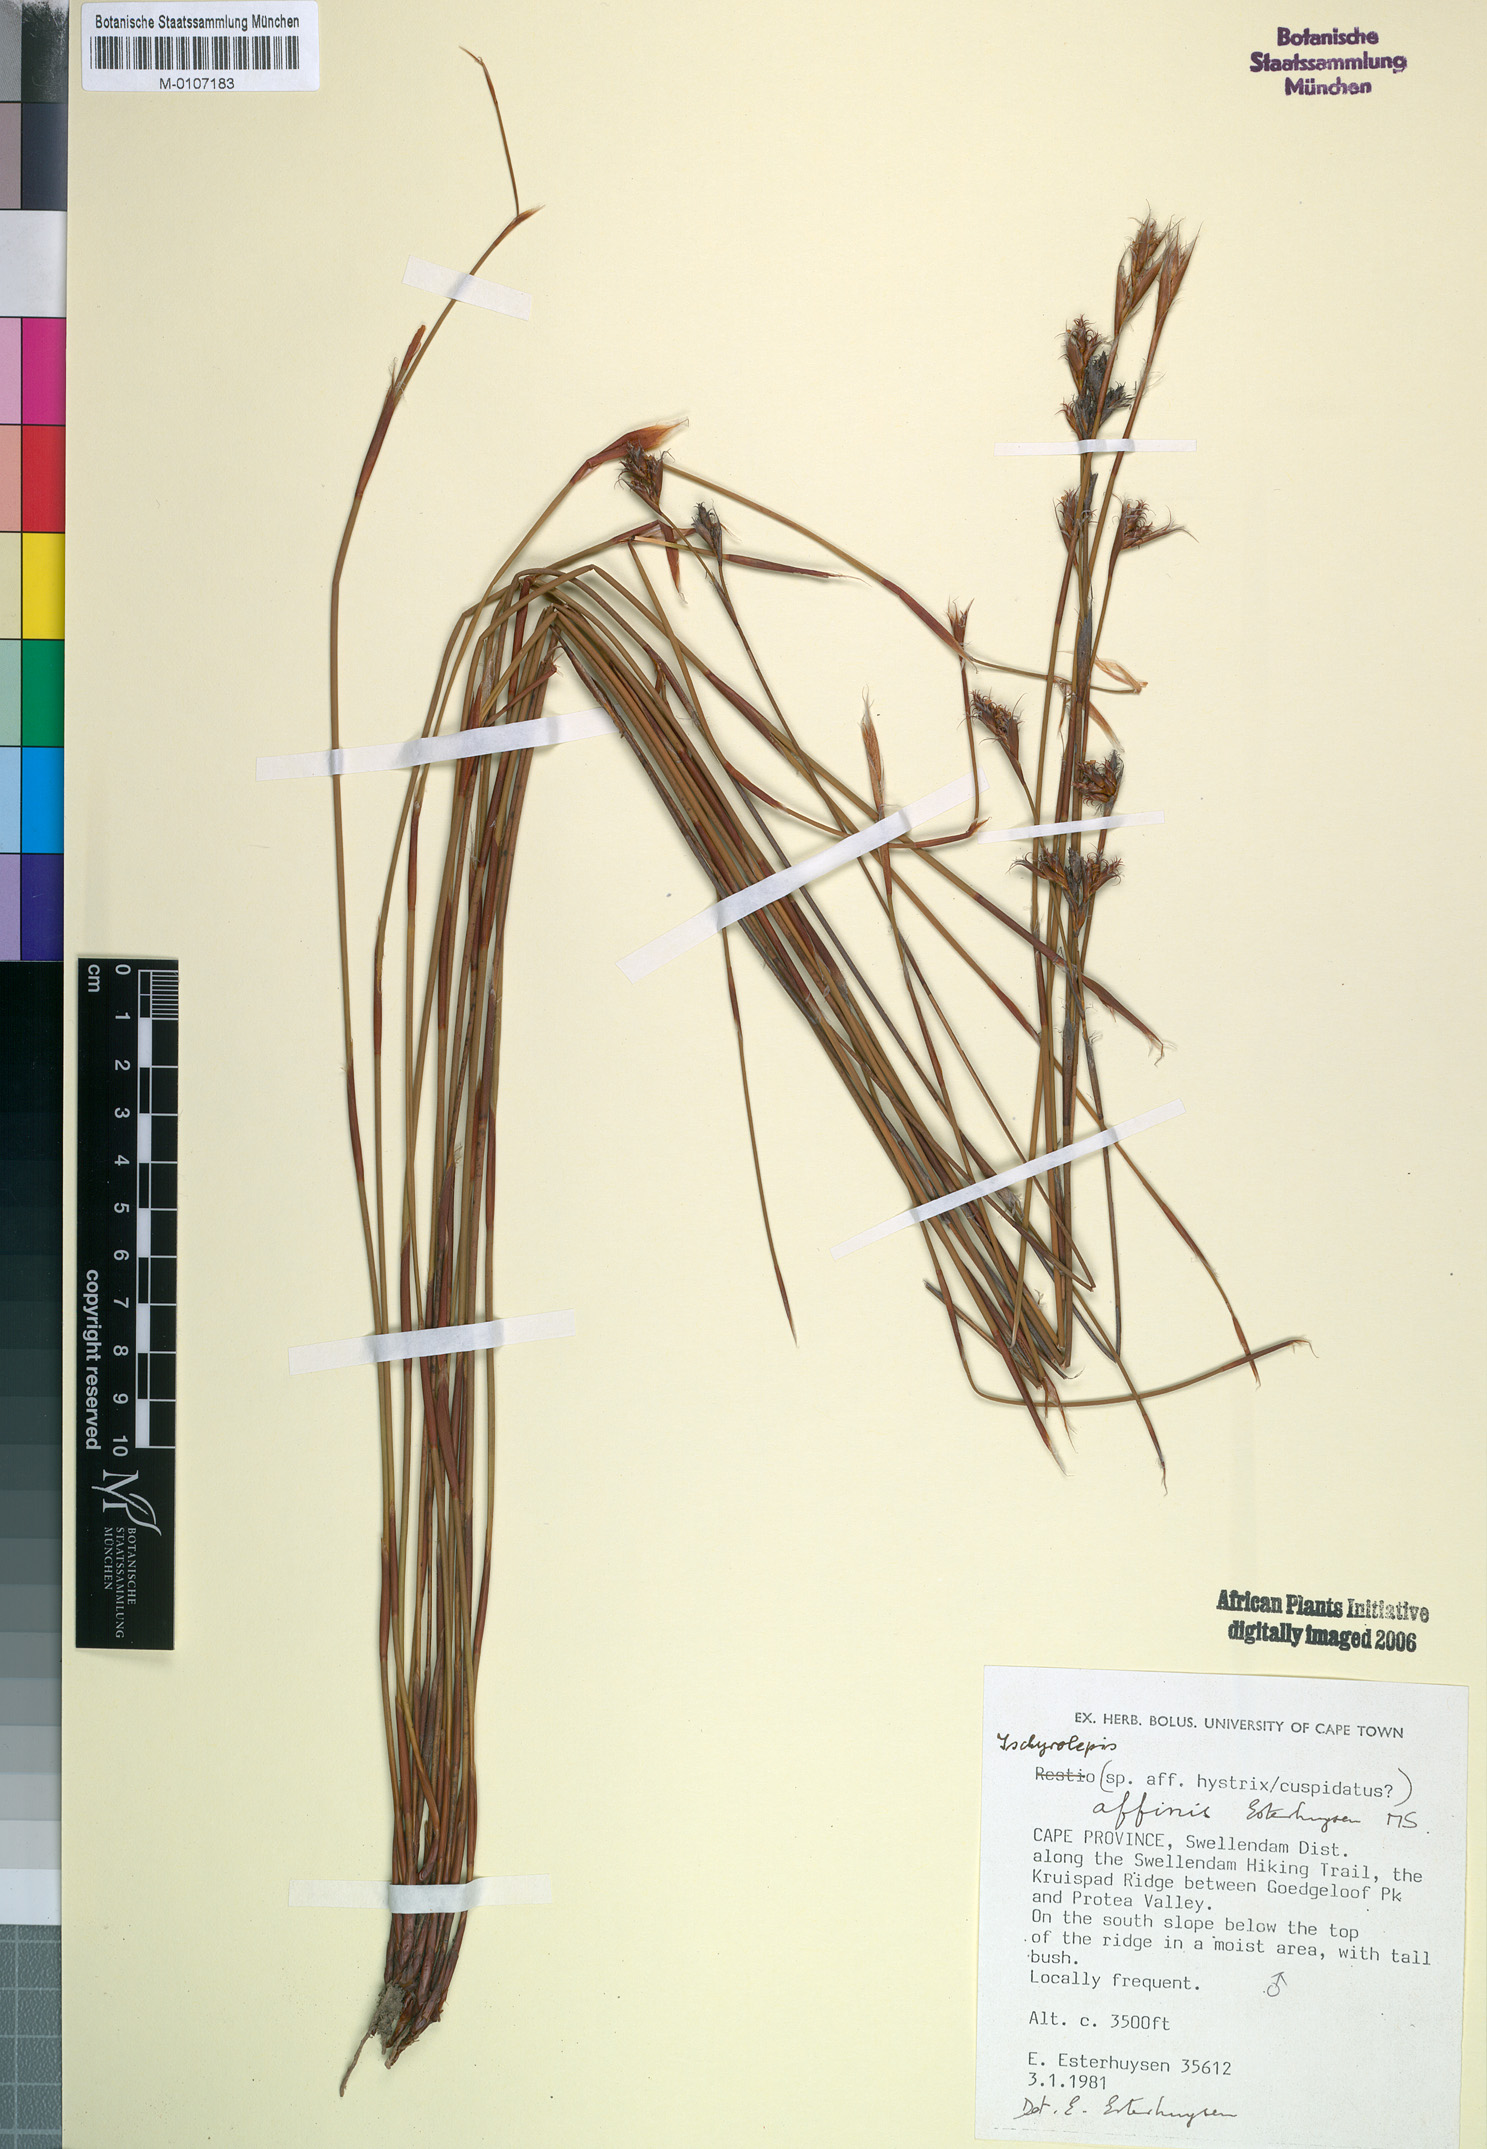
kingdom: Plantae
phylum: Tracheophyta
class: Liliopsida
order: Poales
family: Restionaceae
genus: Restio
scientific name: Restio affinis
